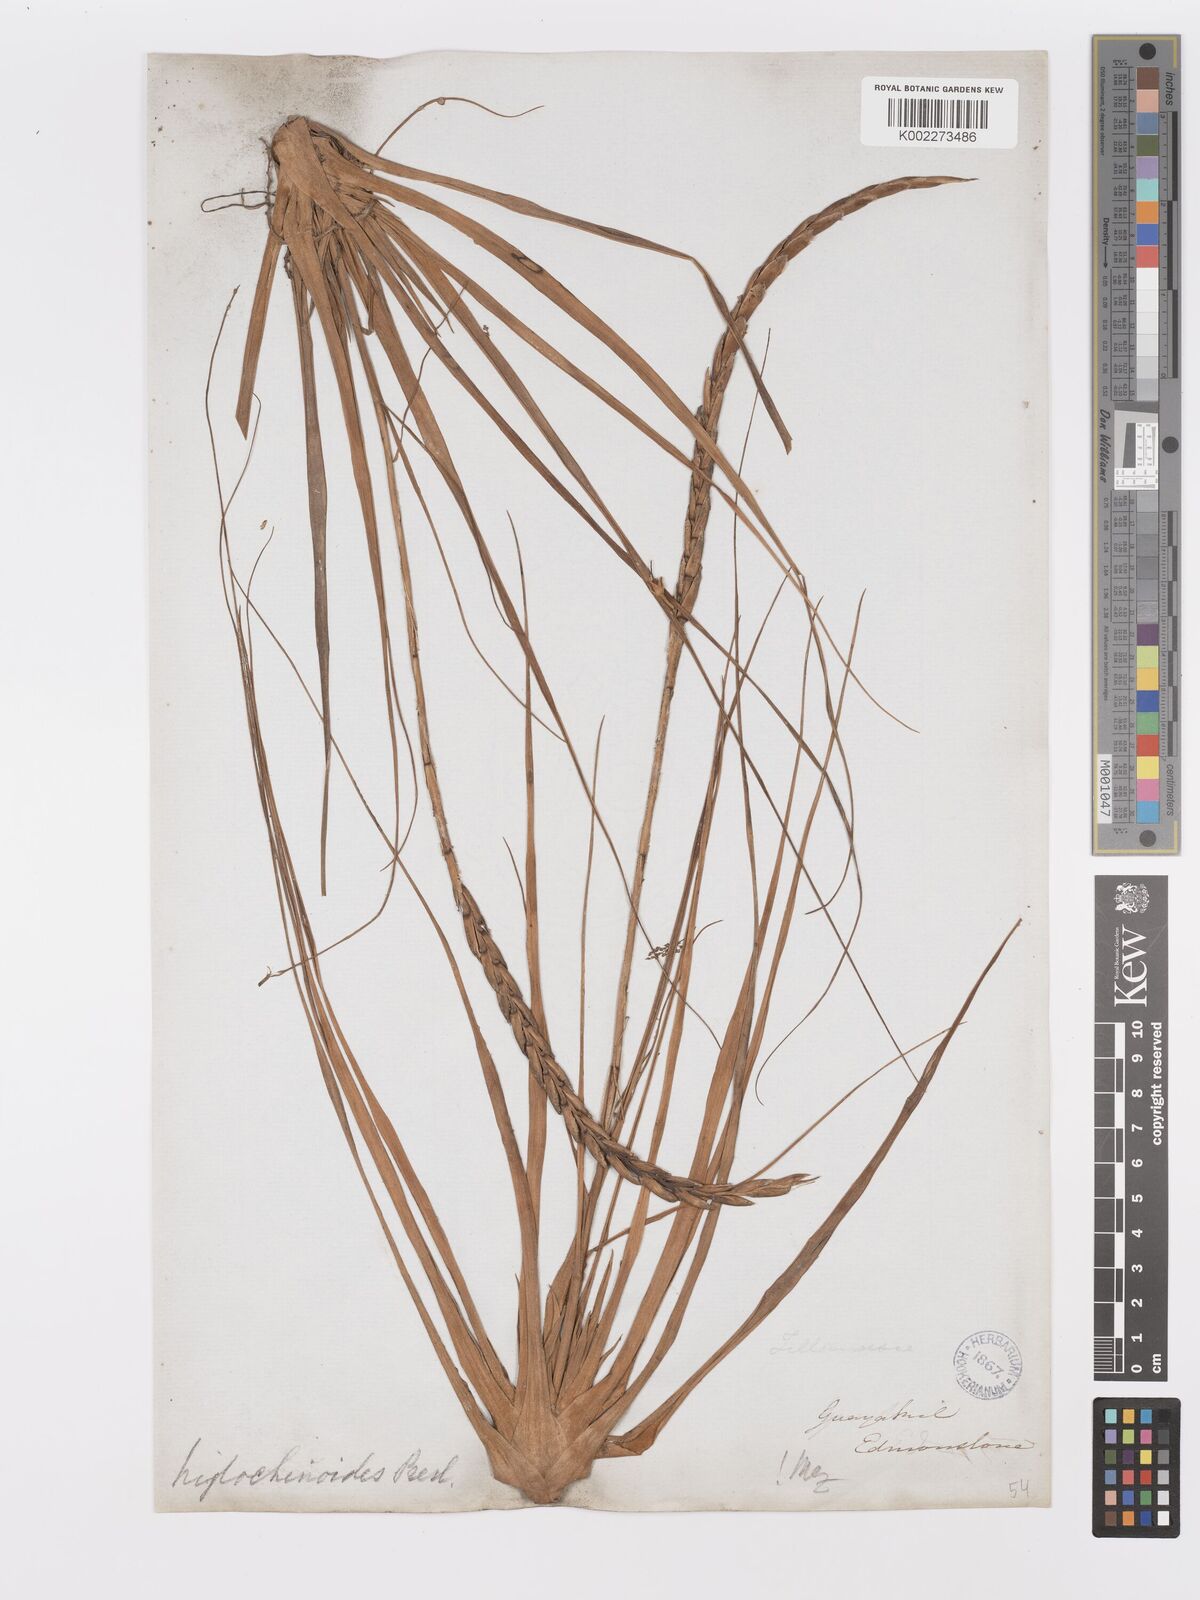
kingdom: Plantae
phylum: Tracheophyta
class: Liliopsida
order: Poales
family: Bromeliaceae
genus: Lemeltonia
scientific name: Lemeltonia triglochinoides
